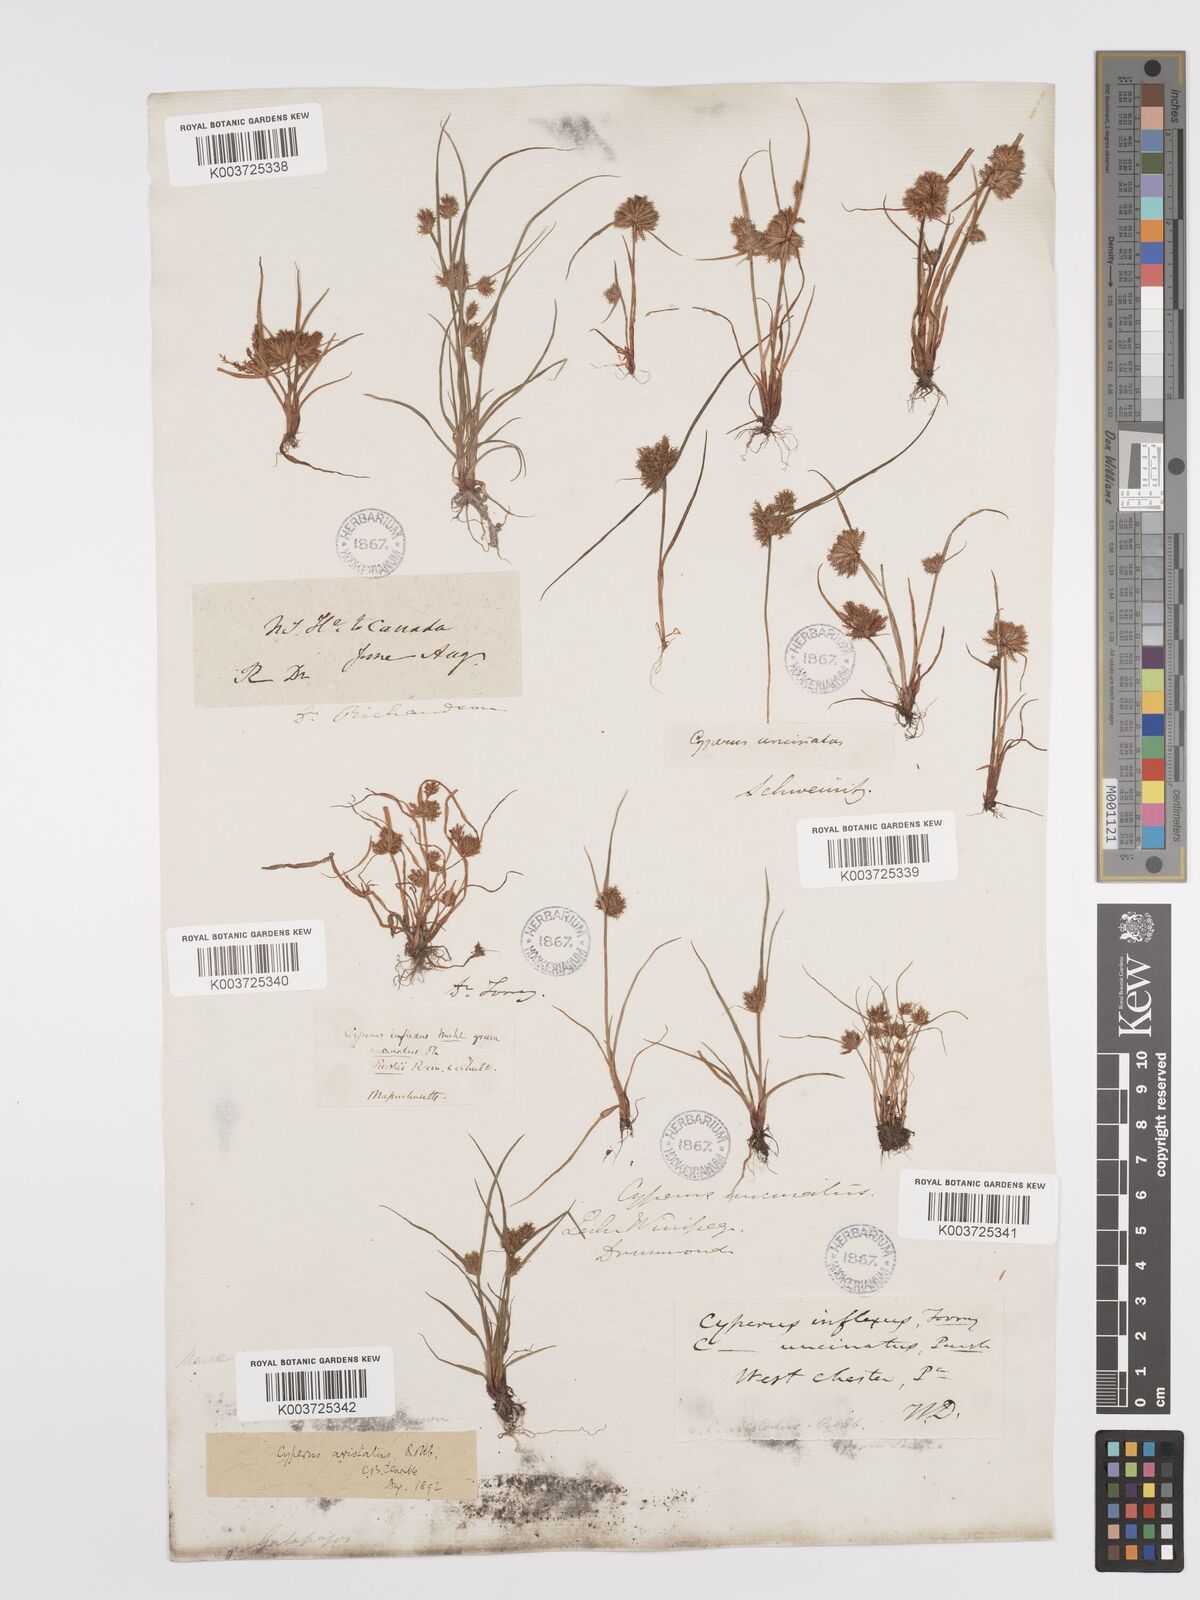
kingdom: Plantae
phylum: Tracheophyta
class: Liliopsida
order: Poales
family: Cyperaceae
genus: Cyperus
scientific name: Cyperus squarrosus
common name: Awned cyperus
